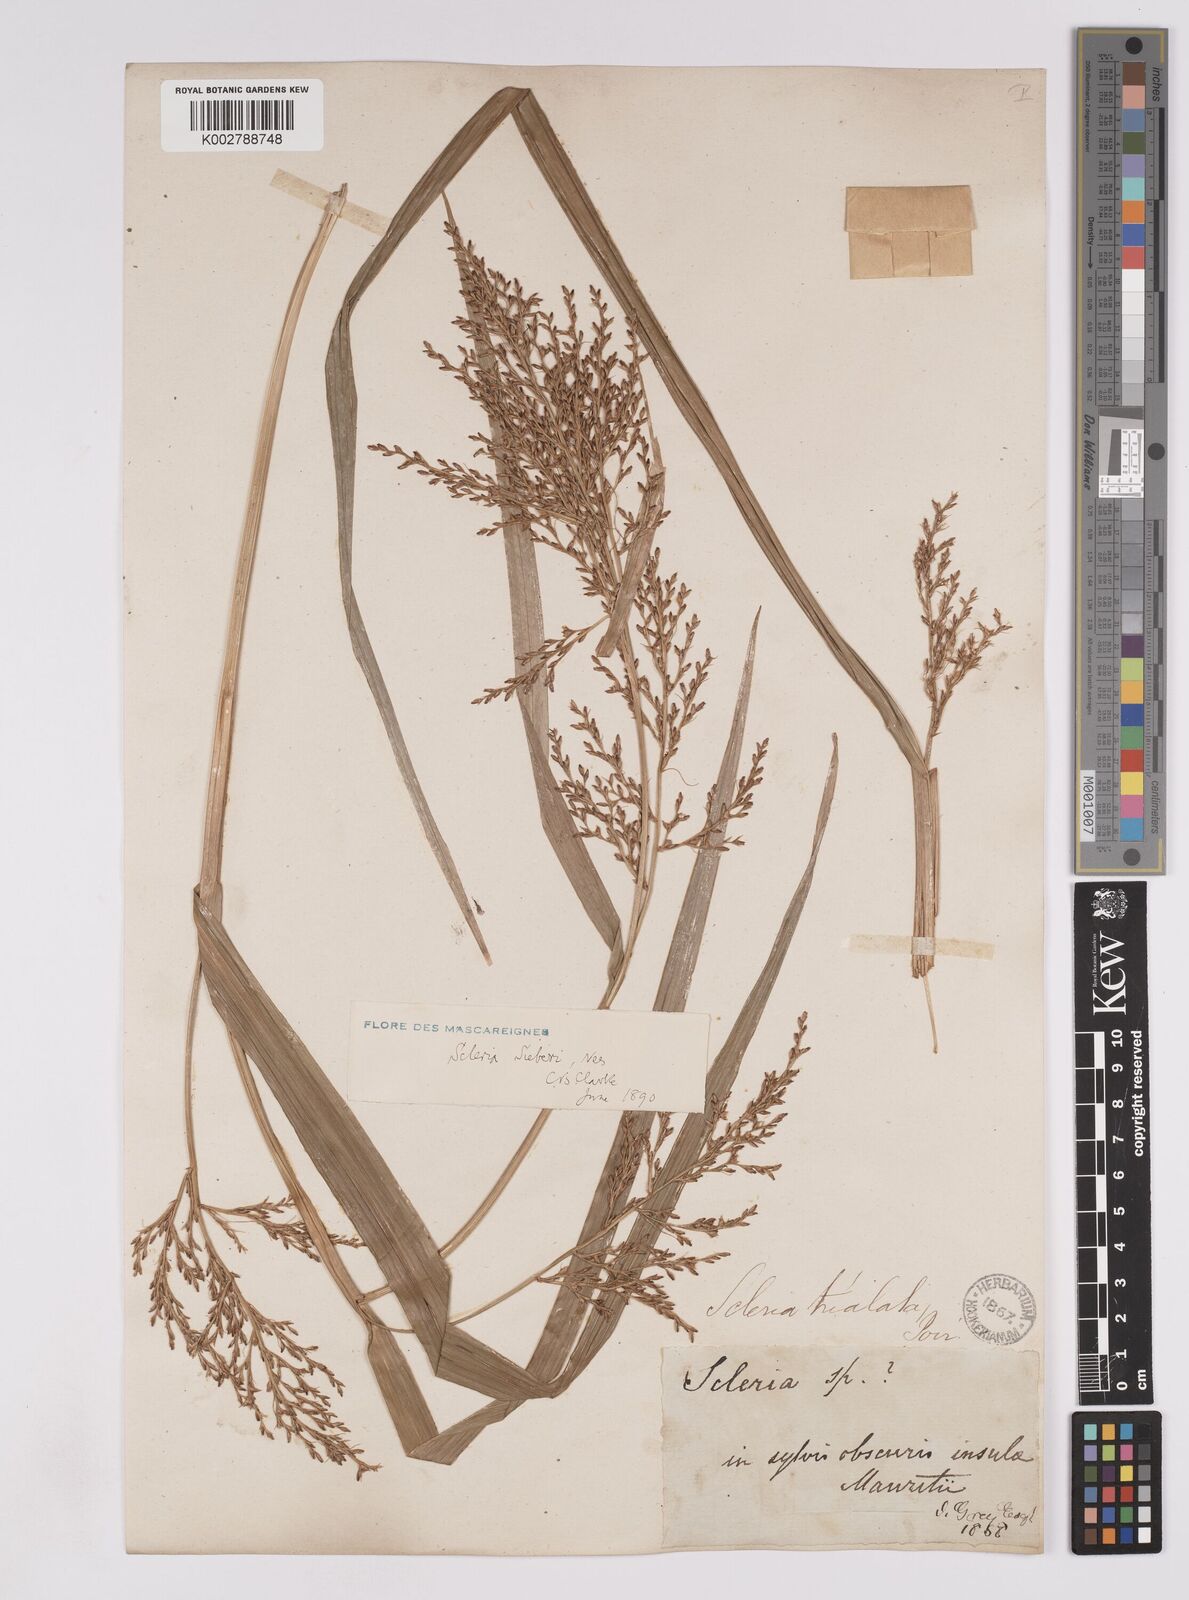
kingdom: Plantae
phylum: Tracheophyta
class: Liliopsida
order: Poales
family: Cyperaceae
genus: Scleria
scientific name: Scleria gaertneri
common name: Cortadera blanca
